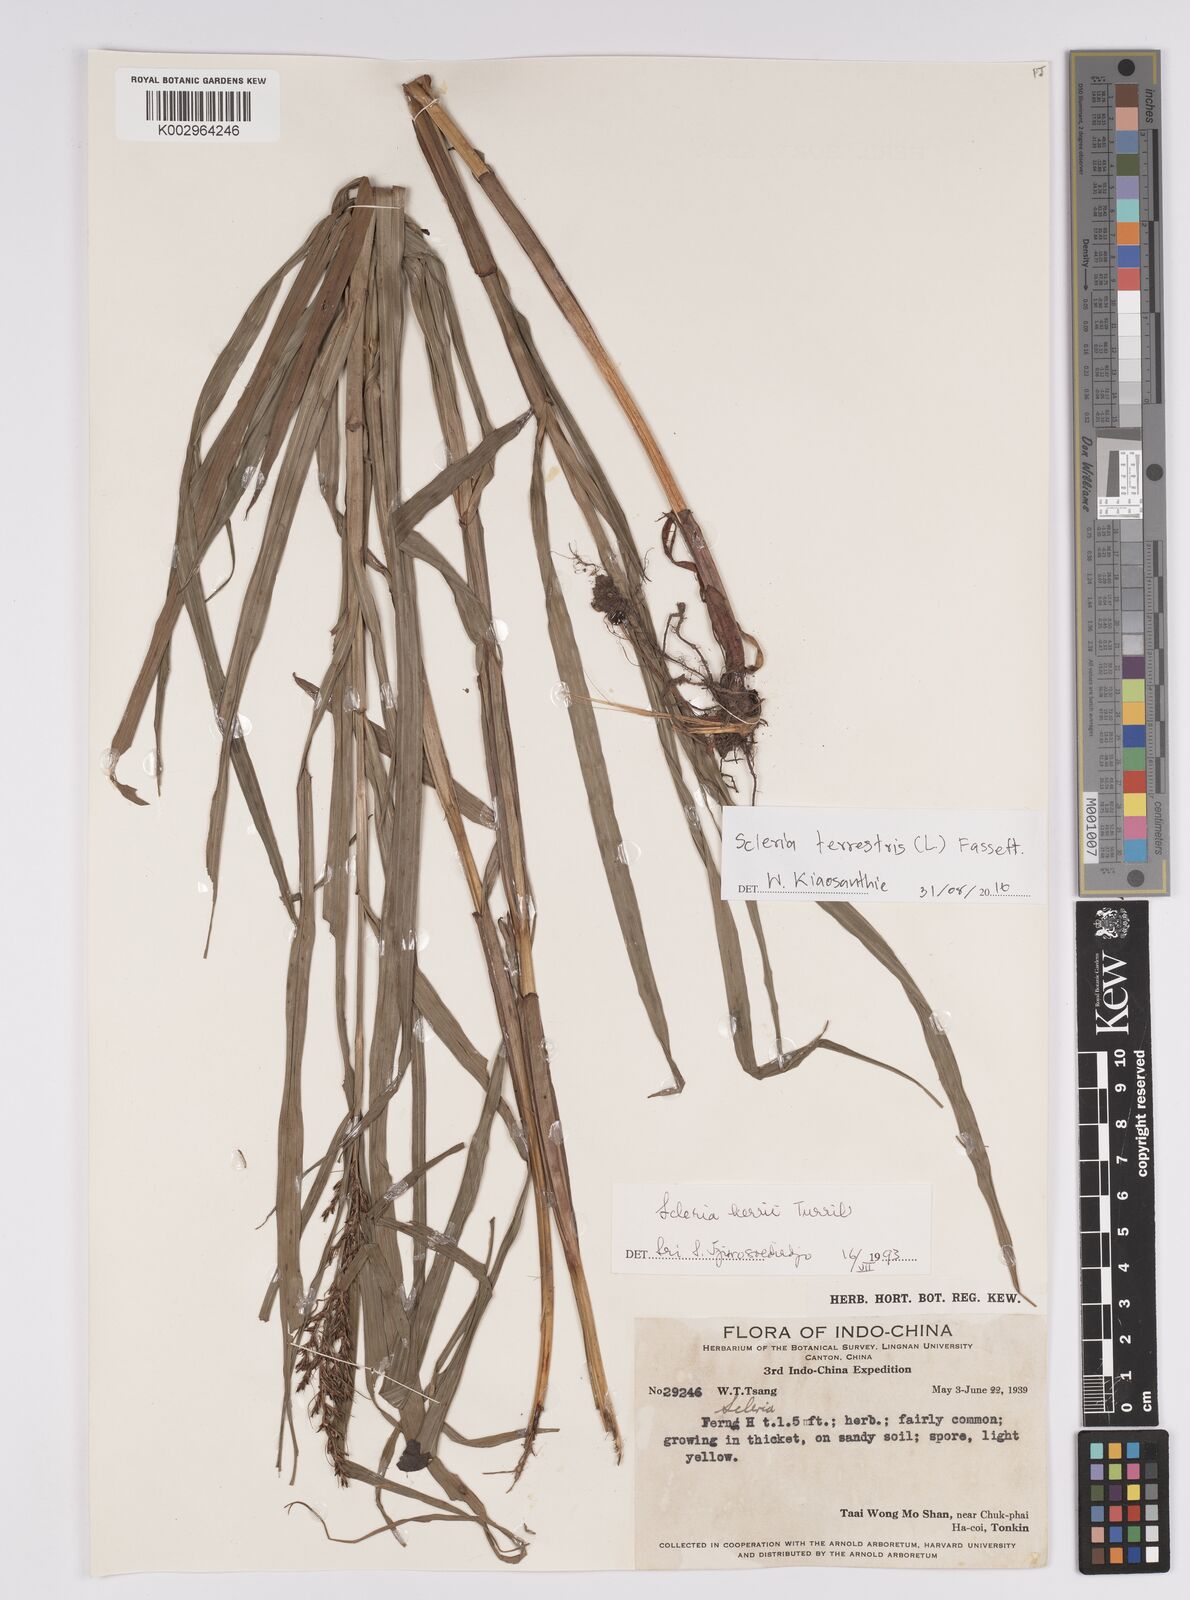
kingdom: Plantae
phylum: Tracheophyta
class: Liliopsida
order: Poales
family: Cyperaceae
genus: Scleria
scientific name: Scleria terrestris
